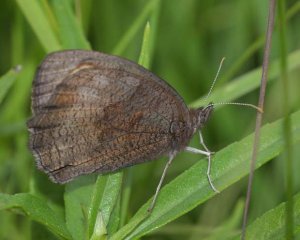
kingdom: Animalia
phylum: Arthropoda
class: Insecta
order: Lepidoptera
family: Nymphalidae
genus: Cercyonis
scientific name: Cercyonis pegala
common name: Common Wood-Nymph
